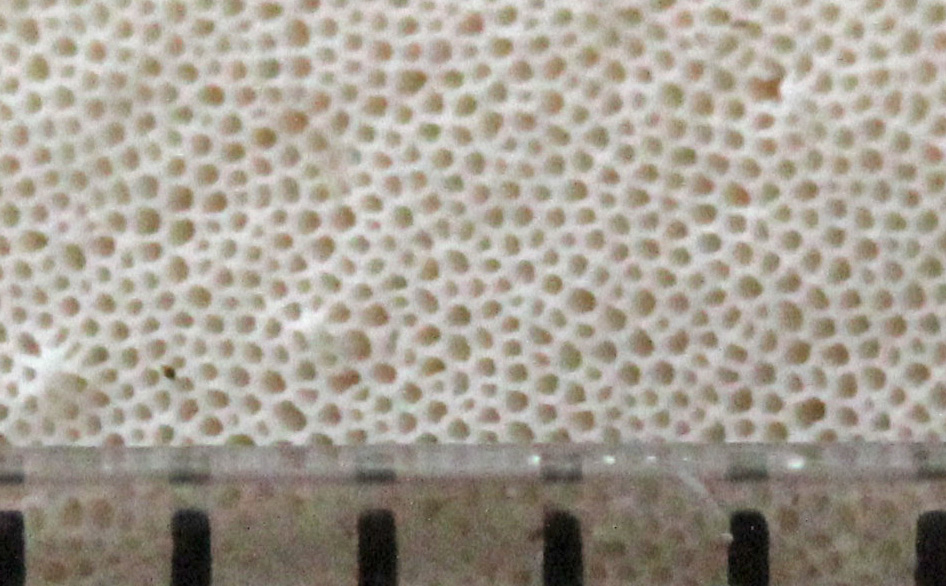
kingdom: Fungi
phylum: Basidiomycota
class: Agaricomycetes
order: Polyporales
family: Incrustoporiaceae
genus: Skeletocutis
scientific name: Skeletocutis nemoralis
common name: stor krystalporesvamp
